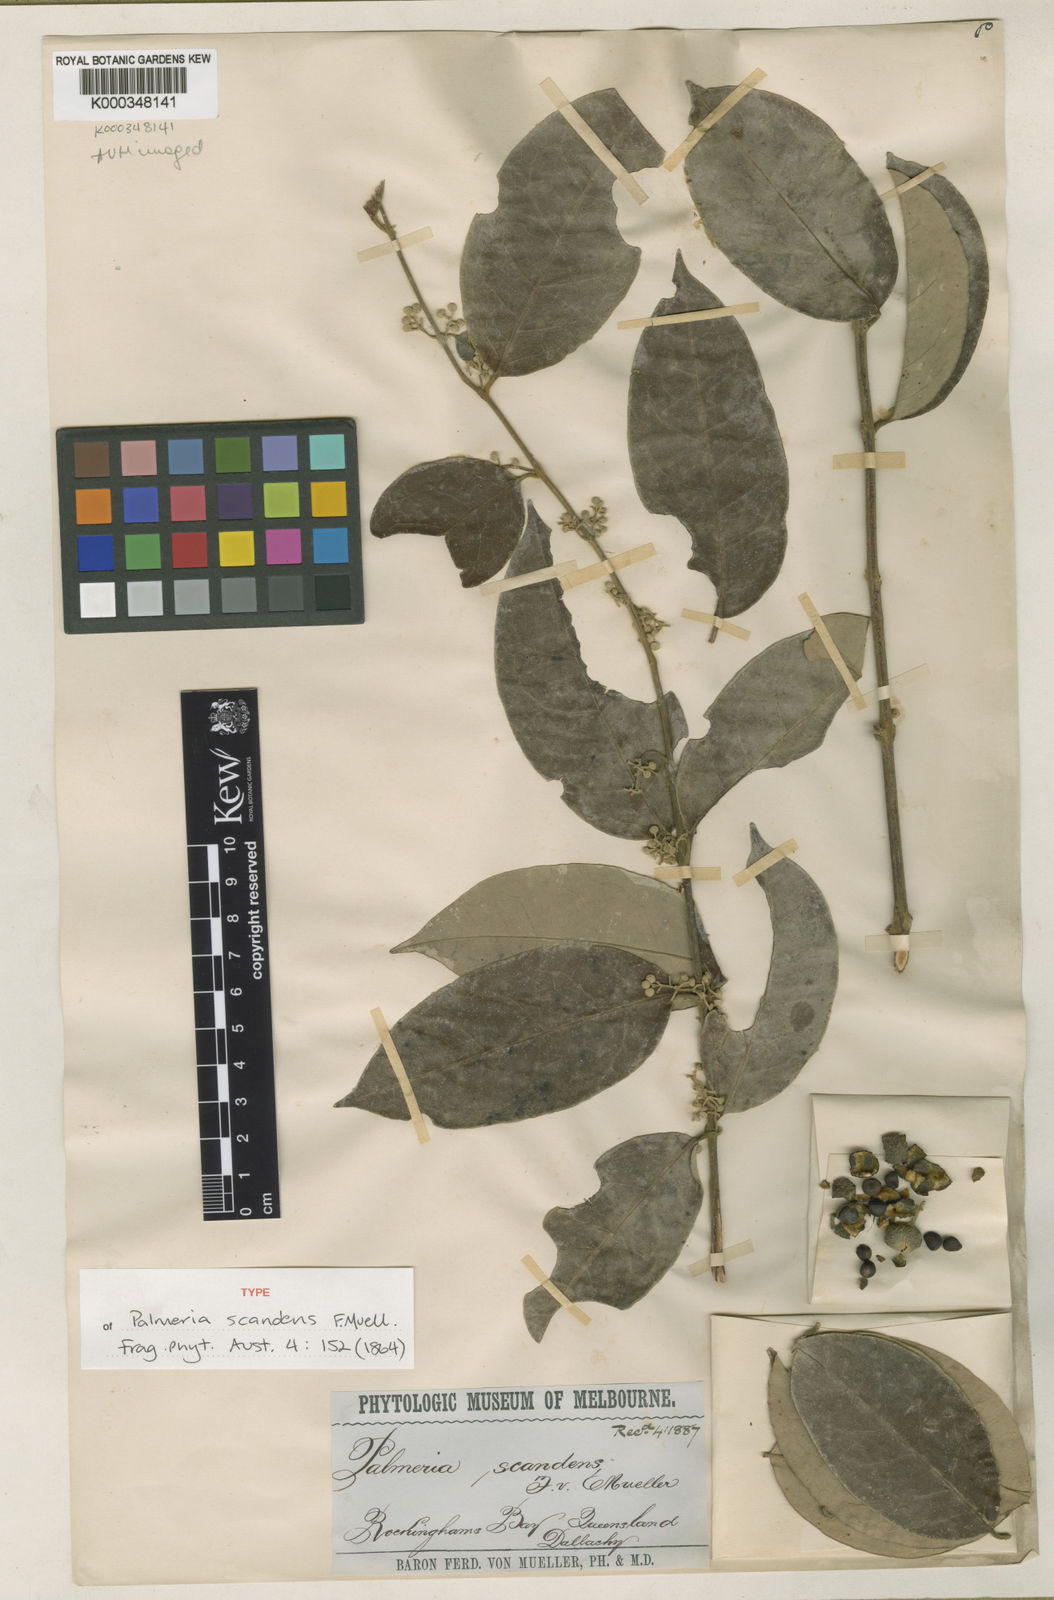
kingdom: Plantae
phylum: Tracheophyta
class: Magnoliopsida
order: Laurales
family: Monimiaceae
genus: Palmeria
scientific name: Palmeria scandens
